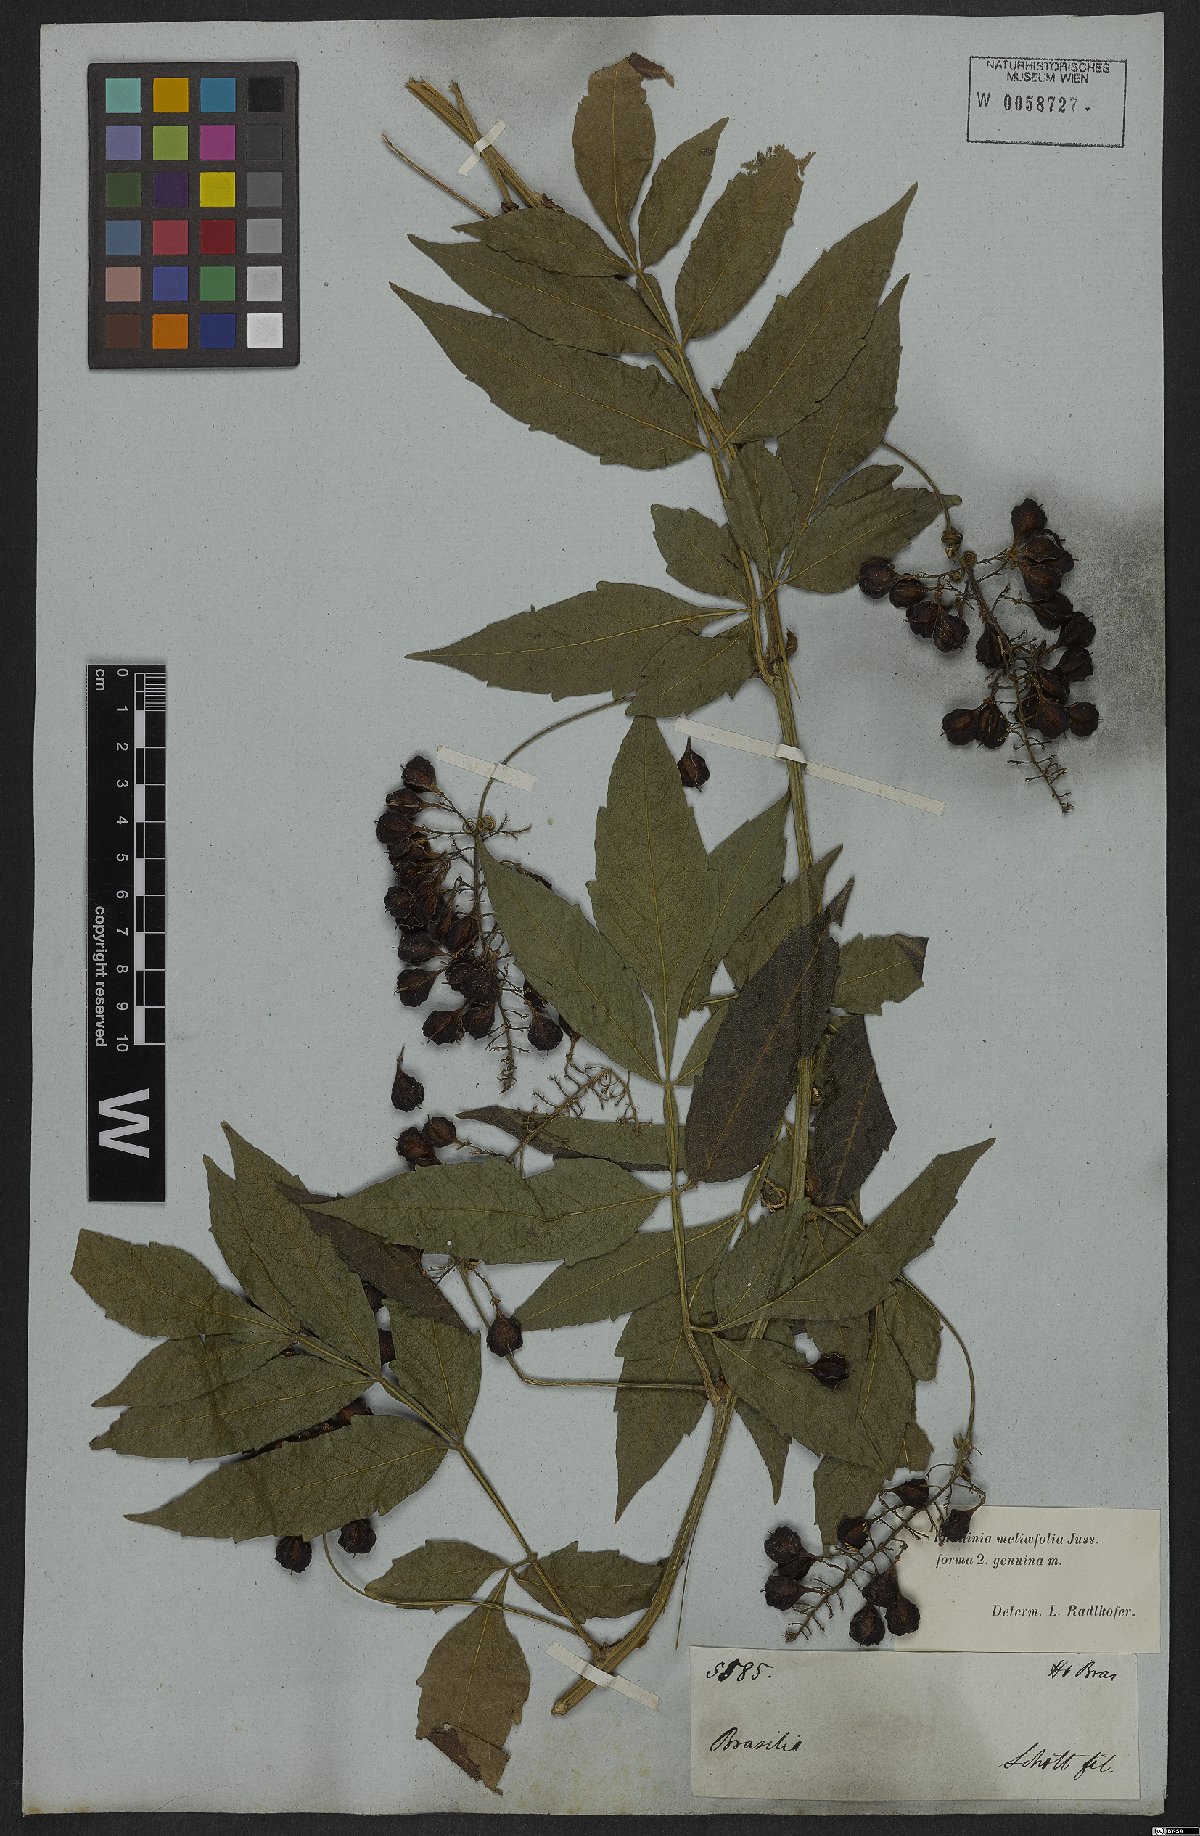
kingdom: Plantae
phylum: Tracheophyta
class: Magnoliopsida
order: Sapindales
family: Sapindaceae
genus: Paullinia
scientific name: Paullinia meliifolia
